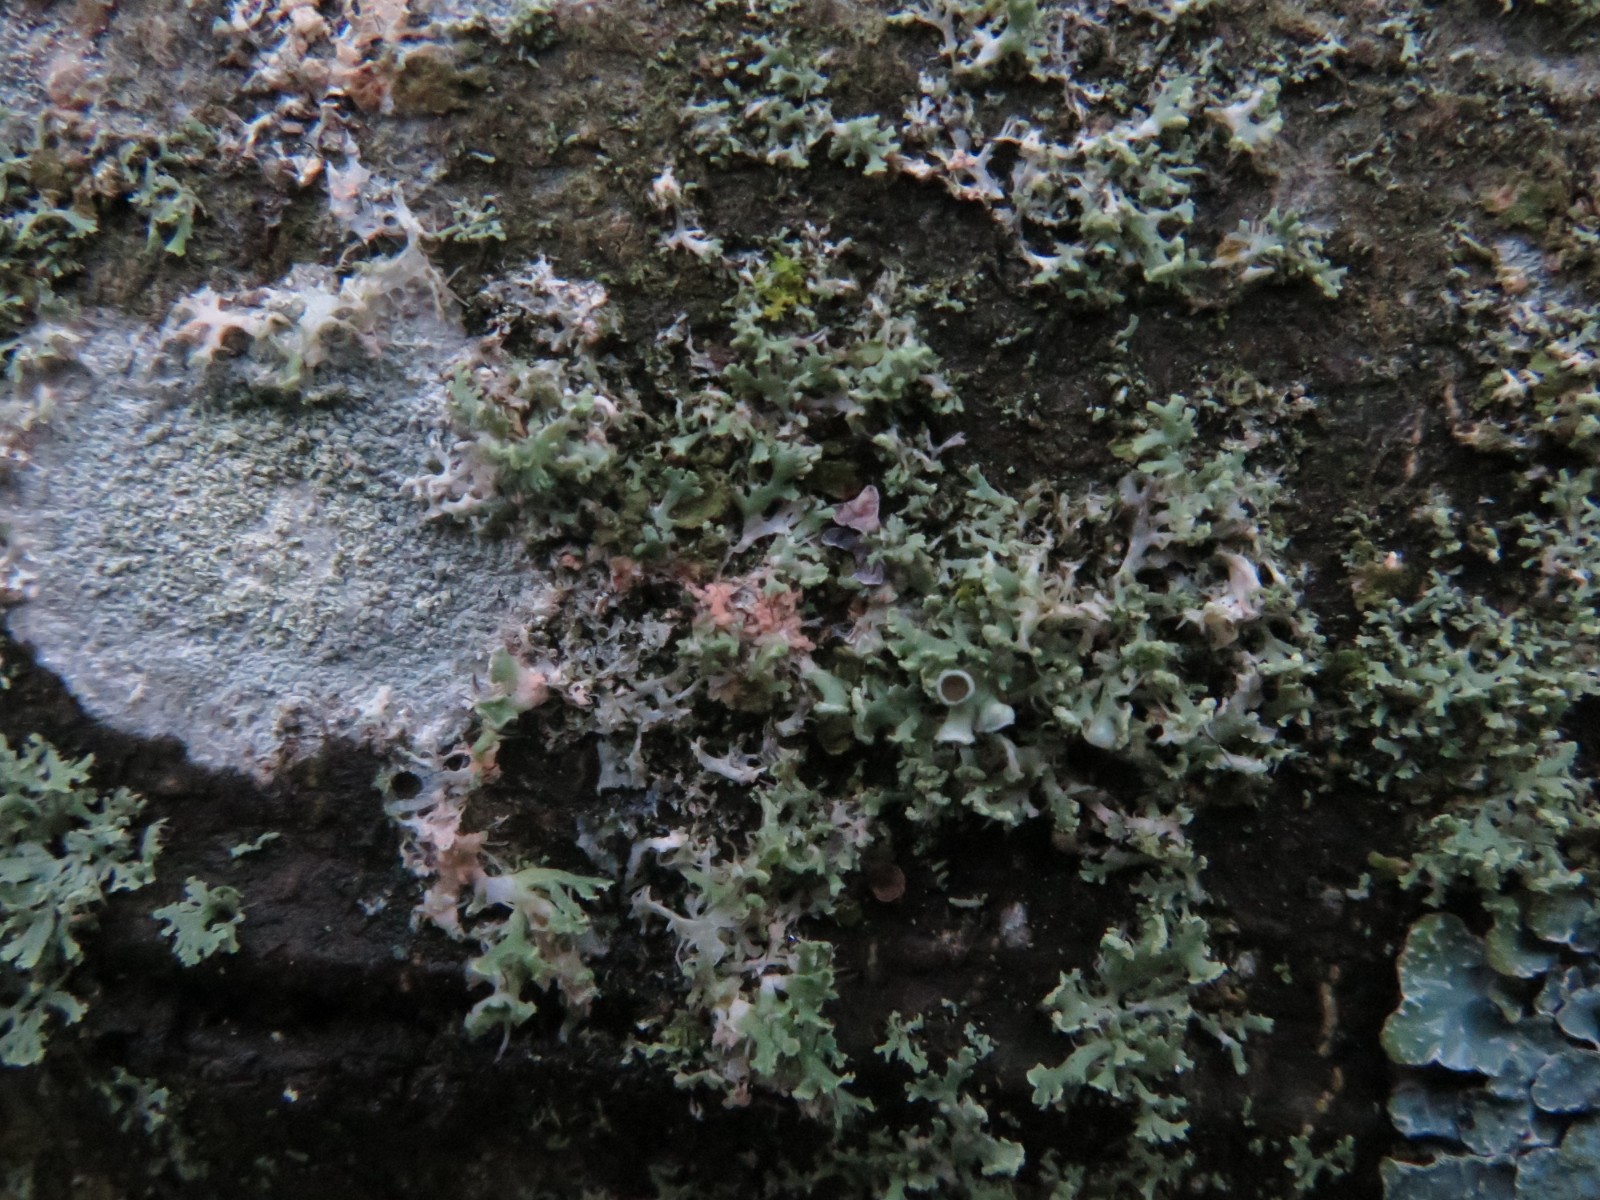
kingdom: Fungi
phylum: Basidiomycota
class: Agaricomycetes
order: Corticiales
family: Corticiaceae
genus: Erythricium
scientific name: Erythricium aurantiacum
